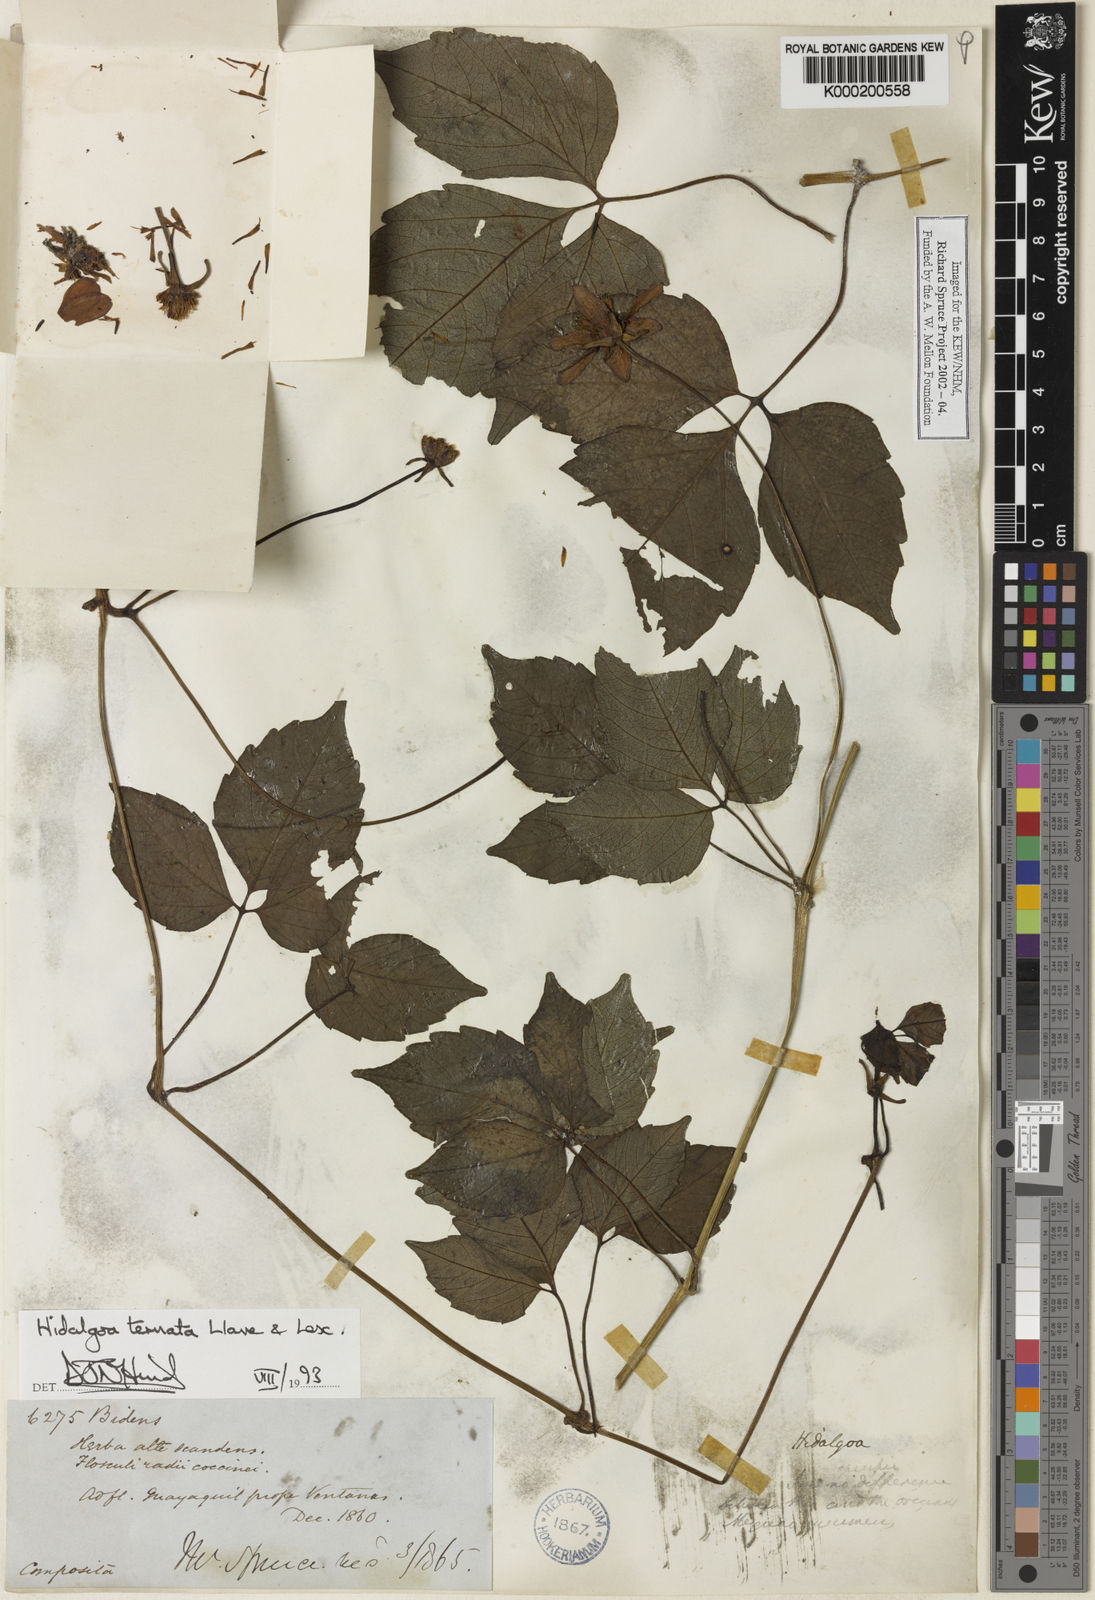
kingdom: Plantae
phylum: Tracheophyta
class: Magnoliopsida
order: Asterales
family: Asteraceae
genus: Hidalgoa
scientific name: Hidalgoa ternata
